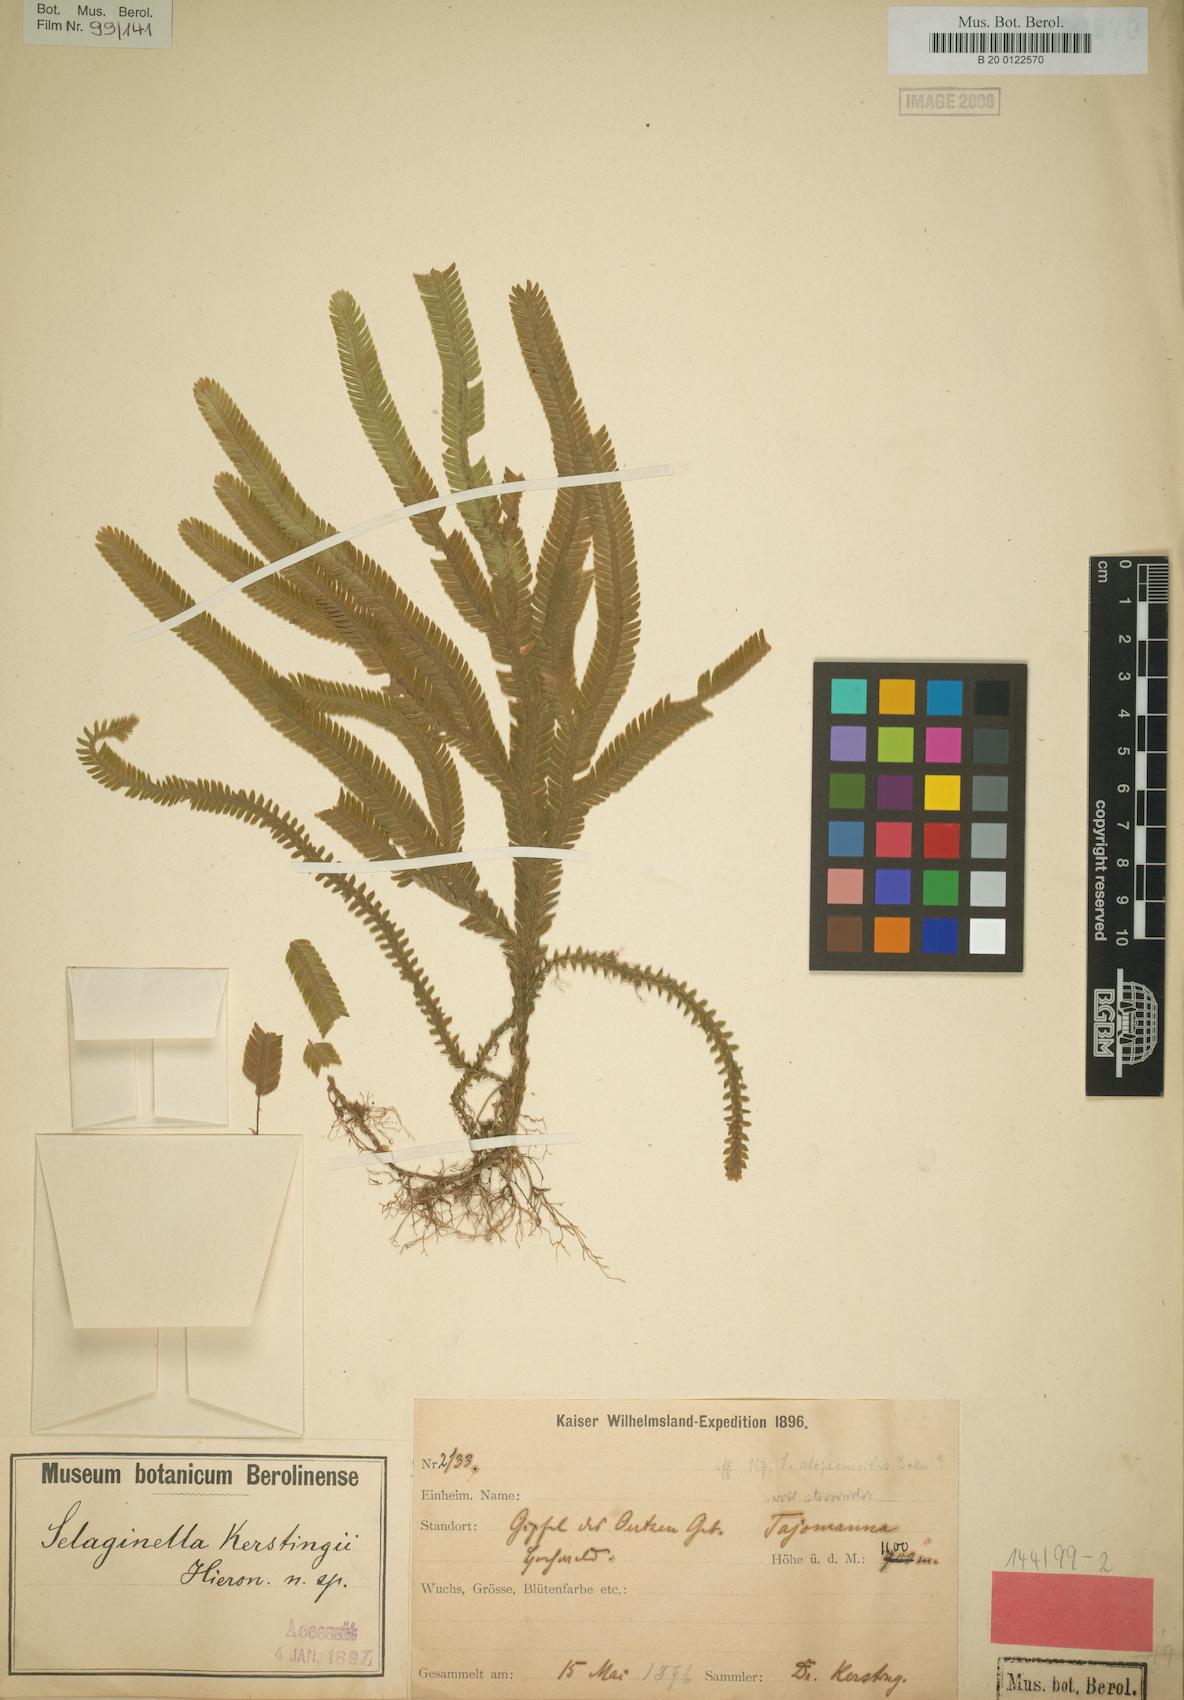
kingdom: Plantae
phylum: Tracheophyta
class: Lycopodiopsida
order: Selaginellales
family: Selaginellaceae
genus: Selaginella
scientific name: Selaginella kerstingii
